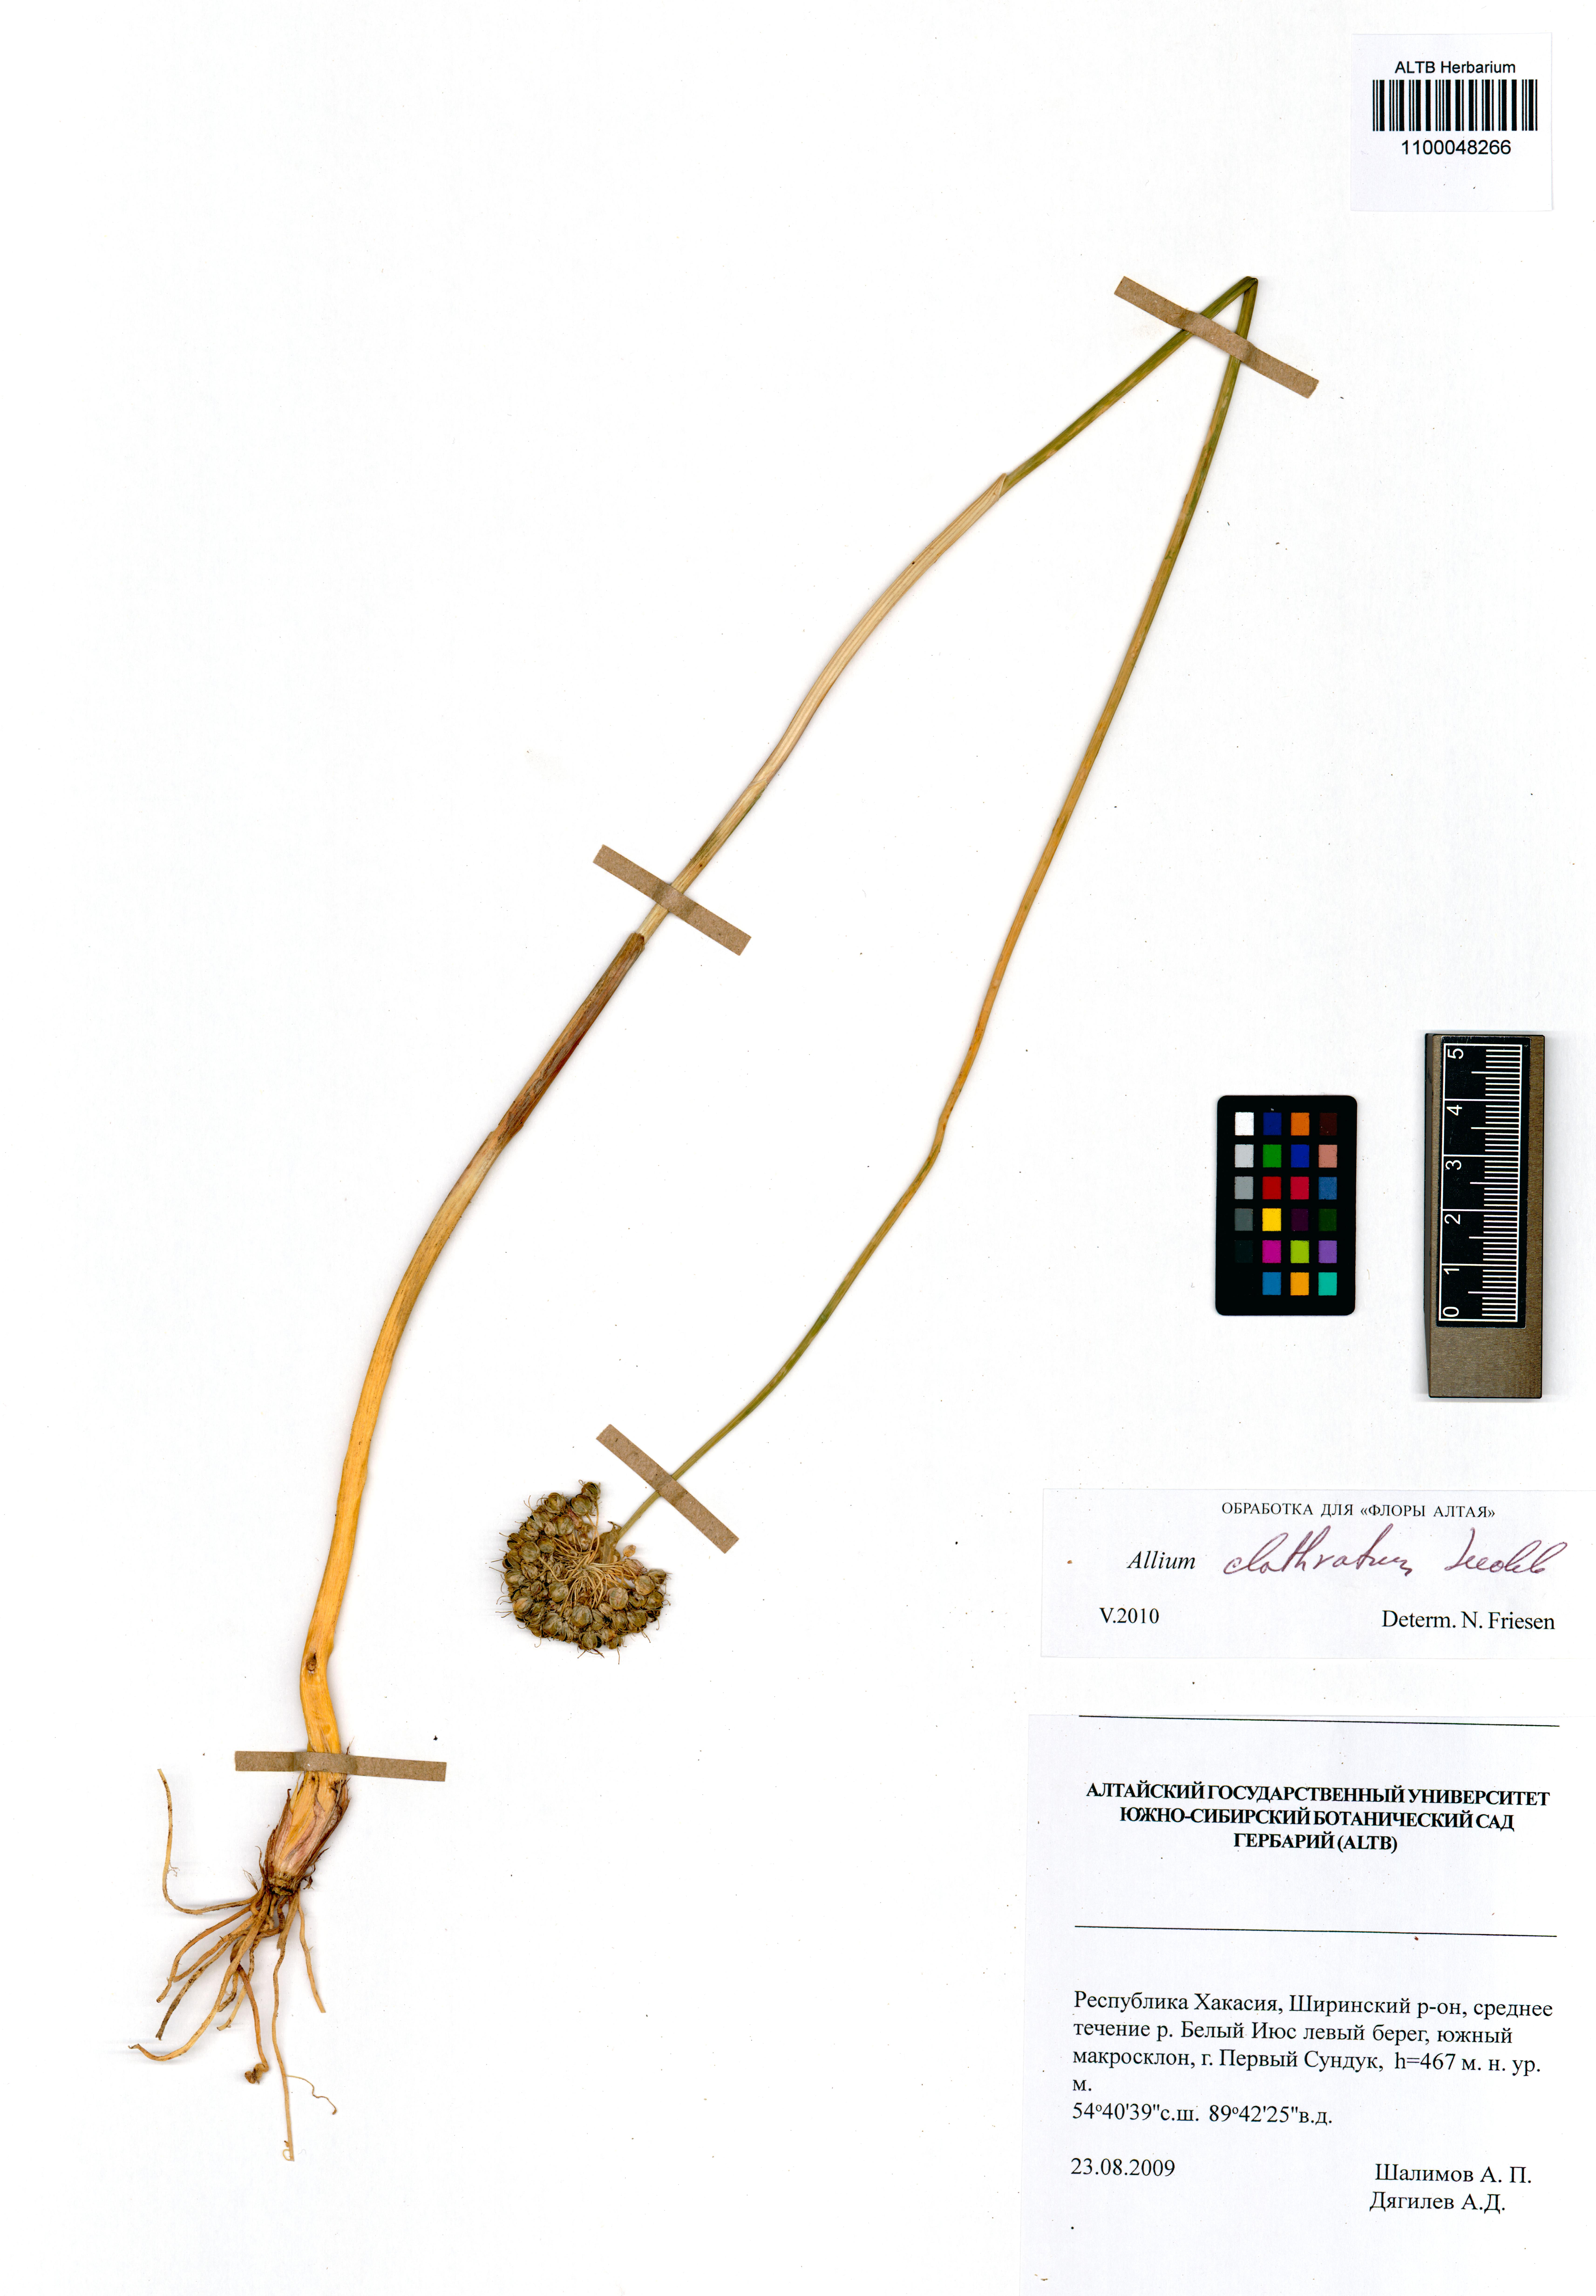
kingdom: Plantae
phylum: Tracheophyta
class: Liliopsida
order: Asparagales
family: Amaryllidaceae
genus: Allium
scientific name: Allium clathratum
